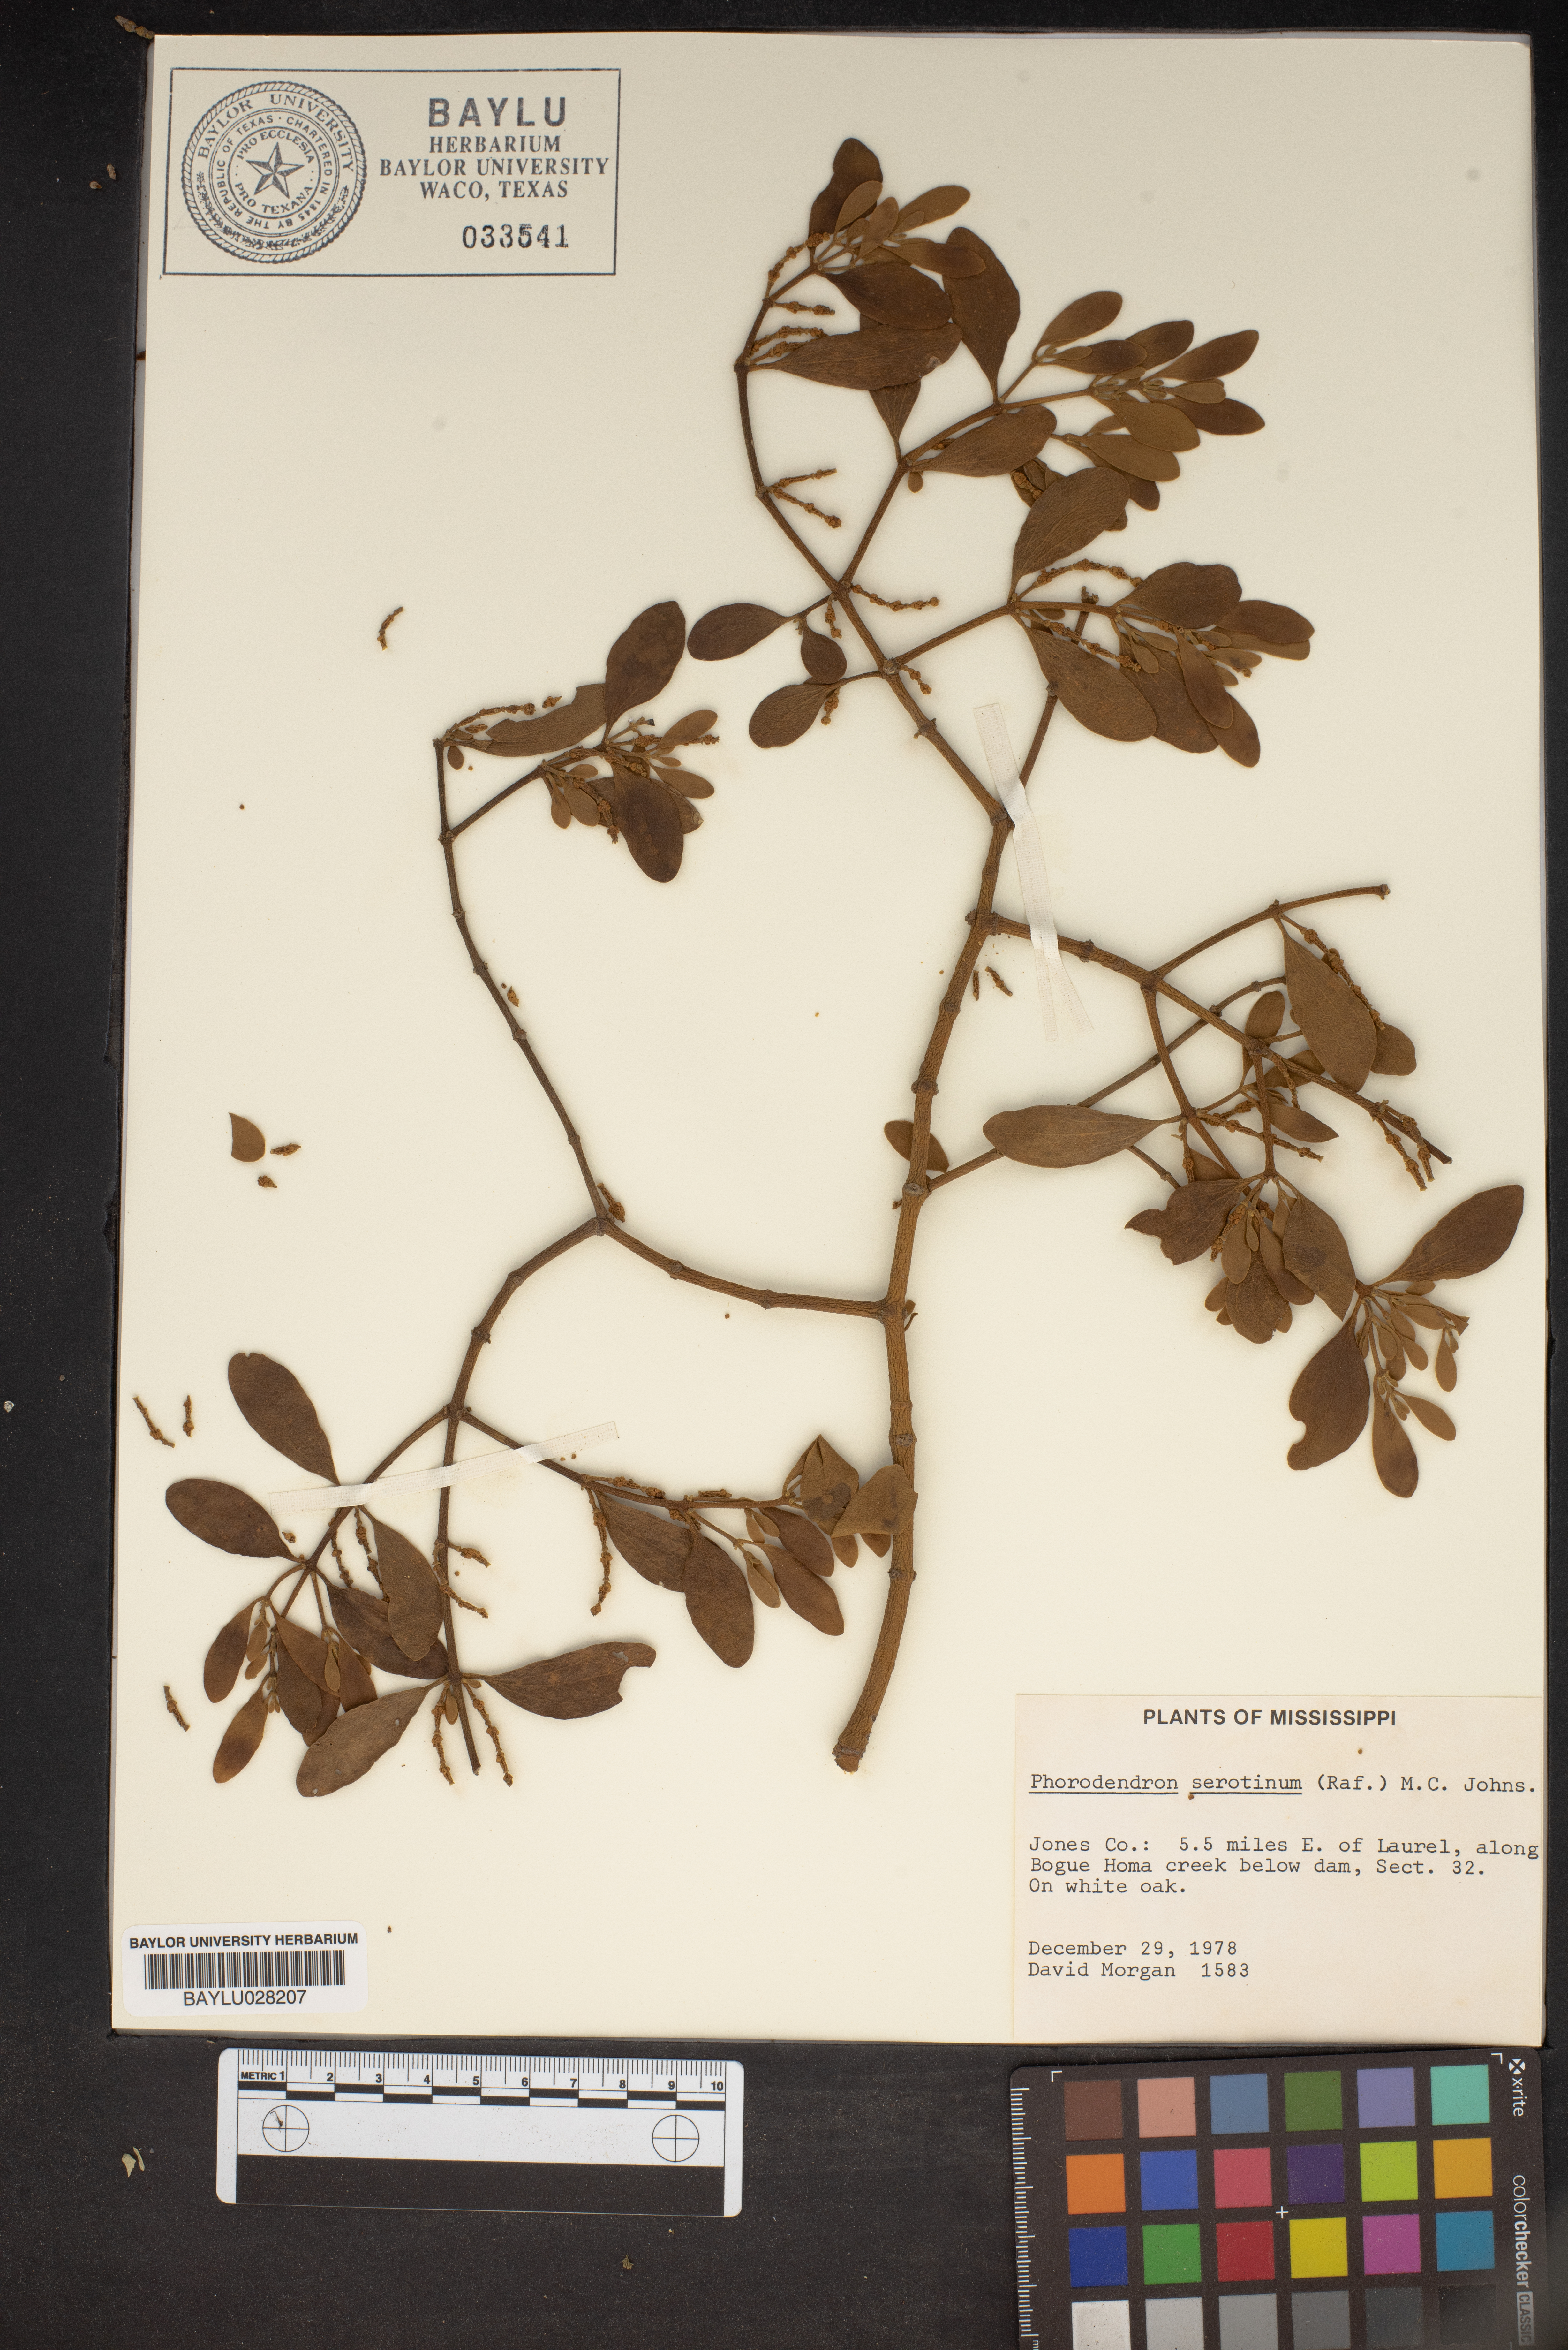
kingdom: Plantae
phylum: Tracheophyta
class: Magnoliopsida
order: Santalales
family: Viscaceae
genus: Phoradendron
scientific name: Phoradendron leucarpum
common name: Pacific mistletoe
